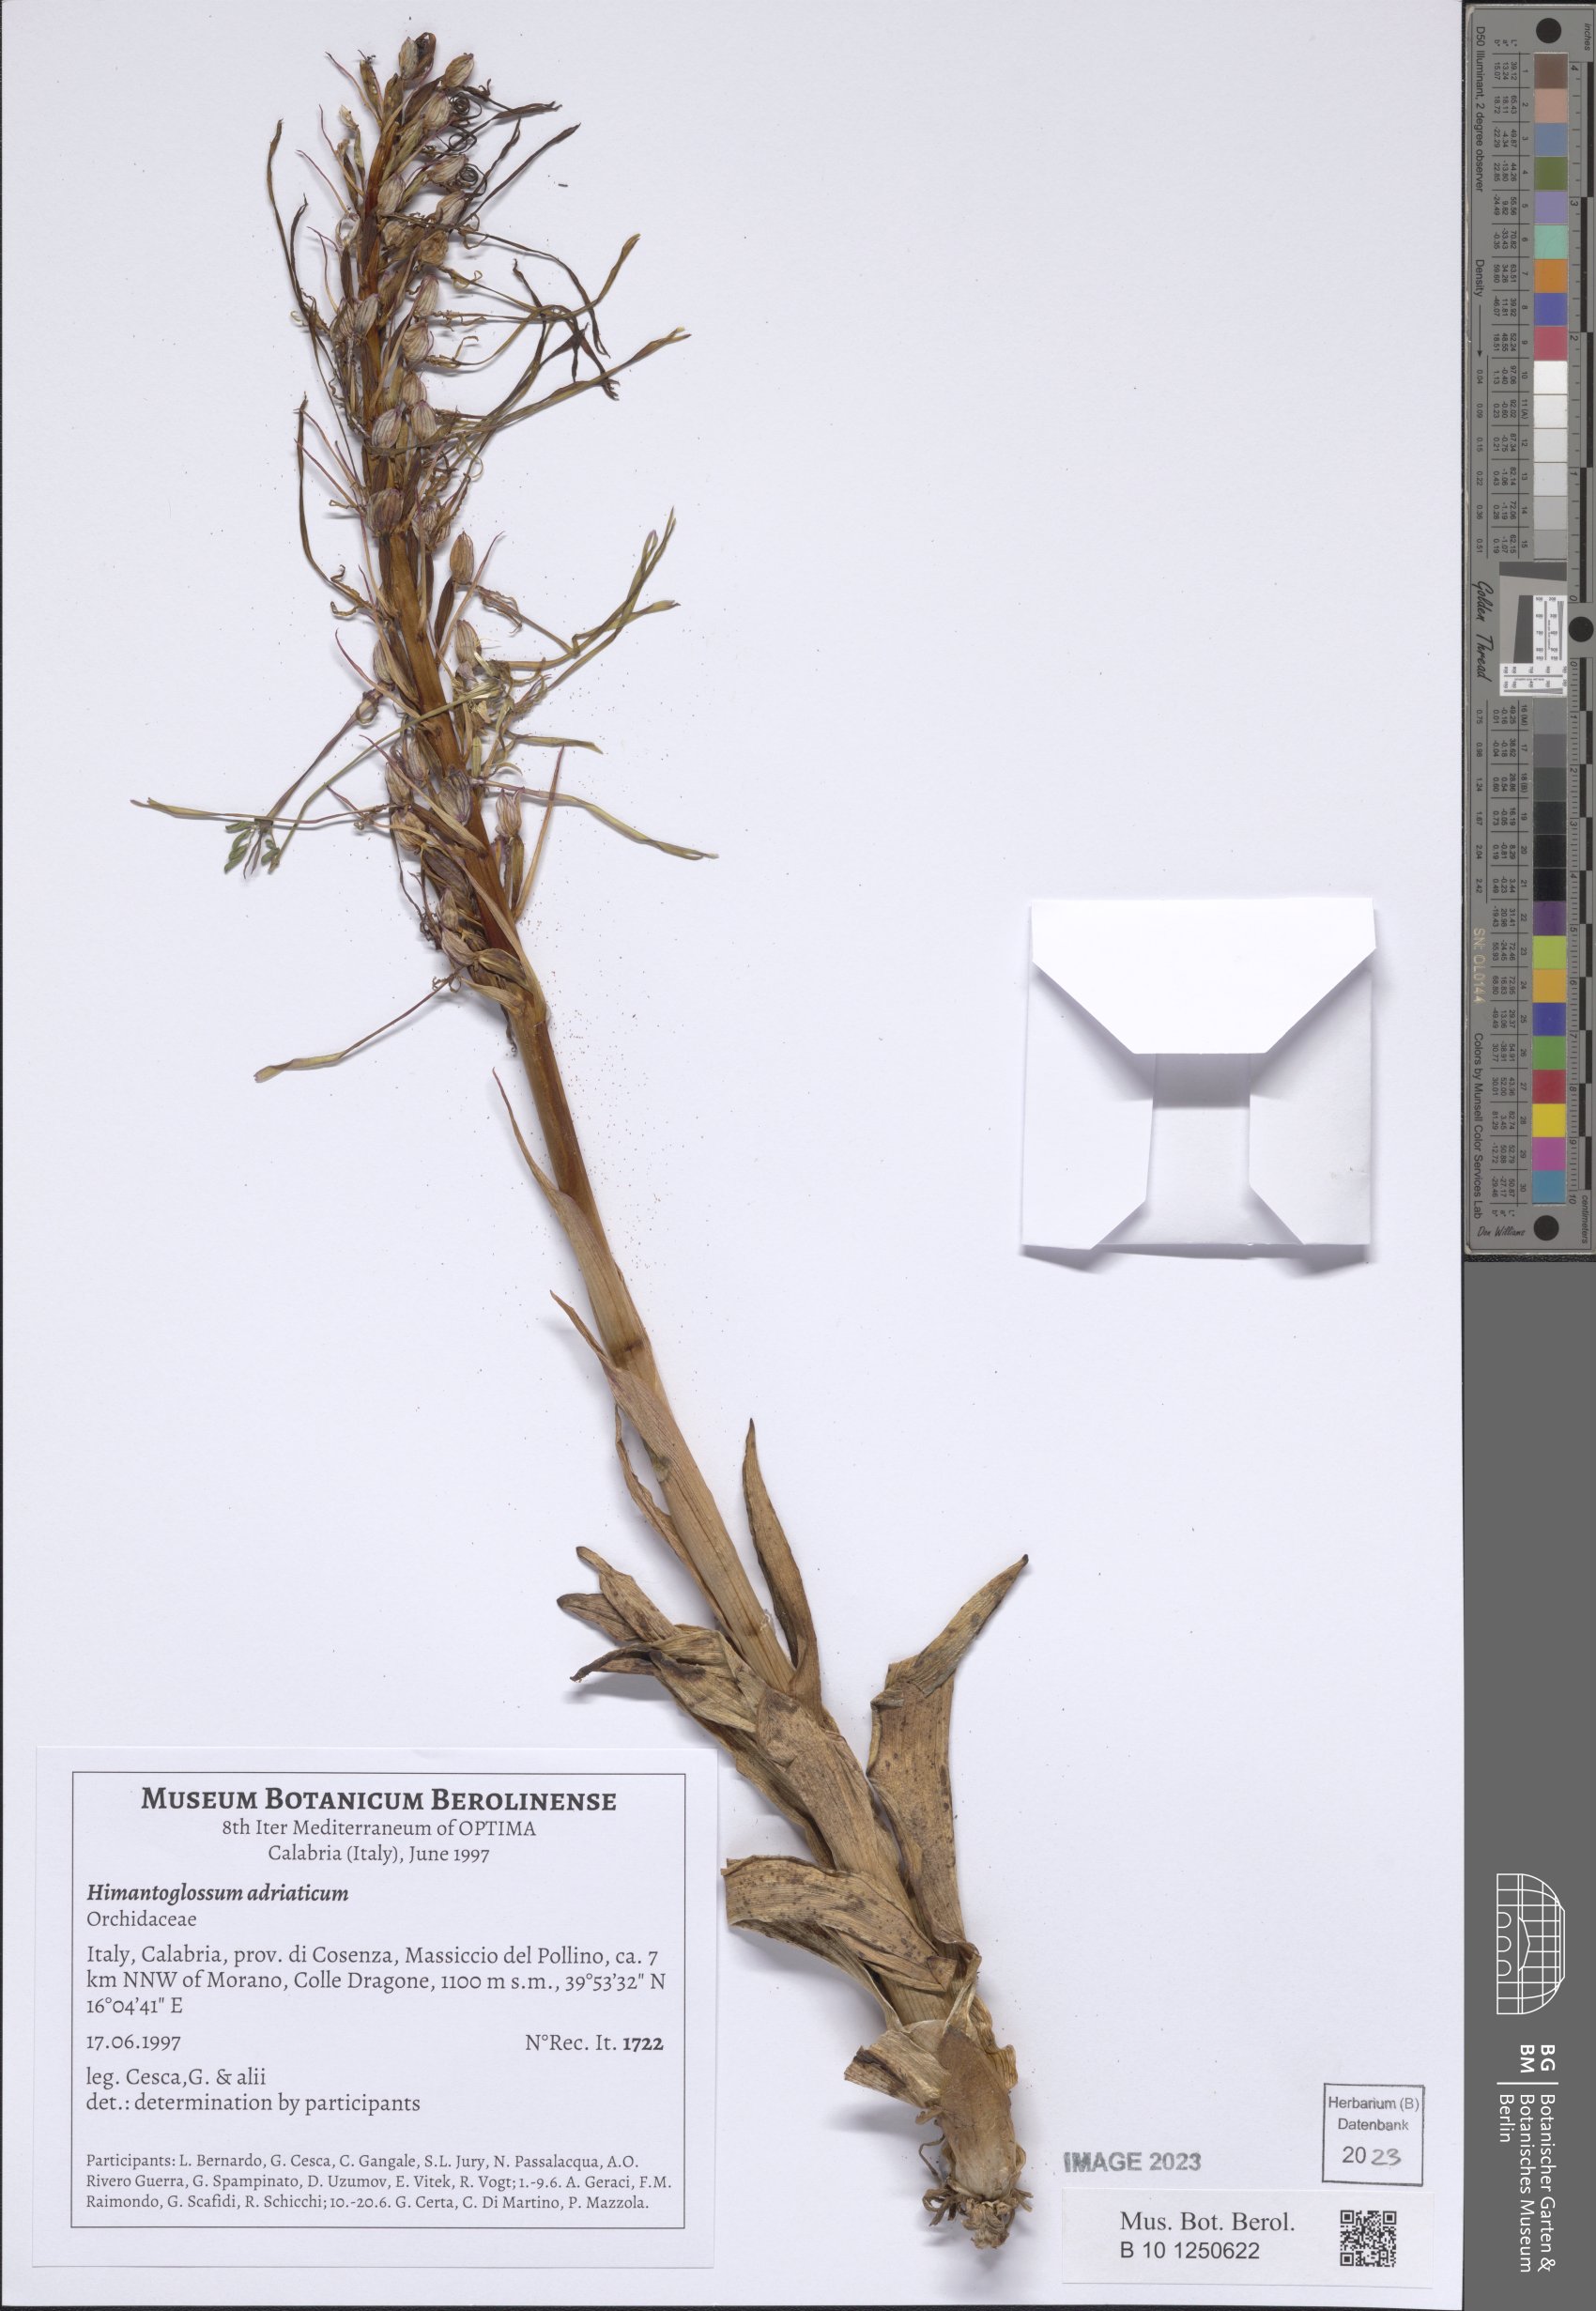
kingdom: Plantae
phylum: Tracheophyta
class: Liliopsida
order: Asparagales
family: Orchidaceae
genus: Himantoglossum
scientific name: Himantoglossum adriaticum
